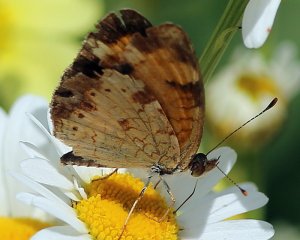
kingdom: Animalia
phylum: Arthropoda
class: Insecta
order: Lepidoptera
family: Nymphalidae
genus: Phyciodes
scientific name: Phyciodes tharos
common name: Northern Crescent
